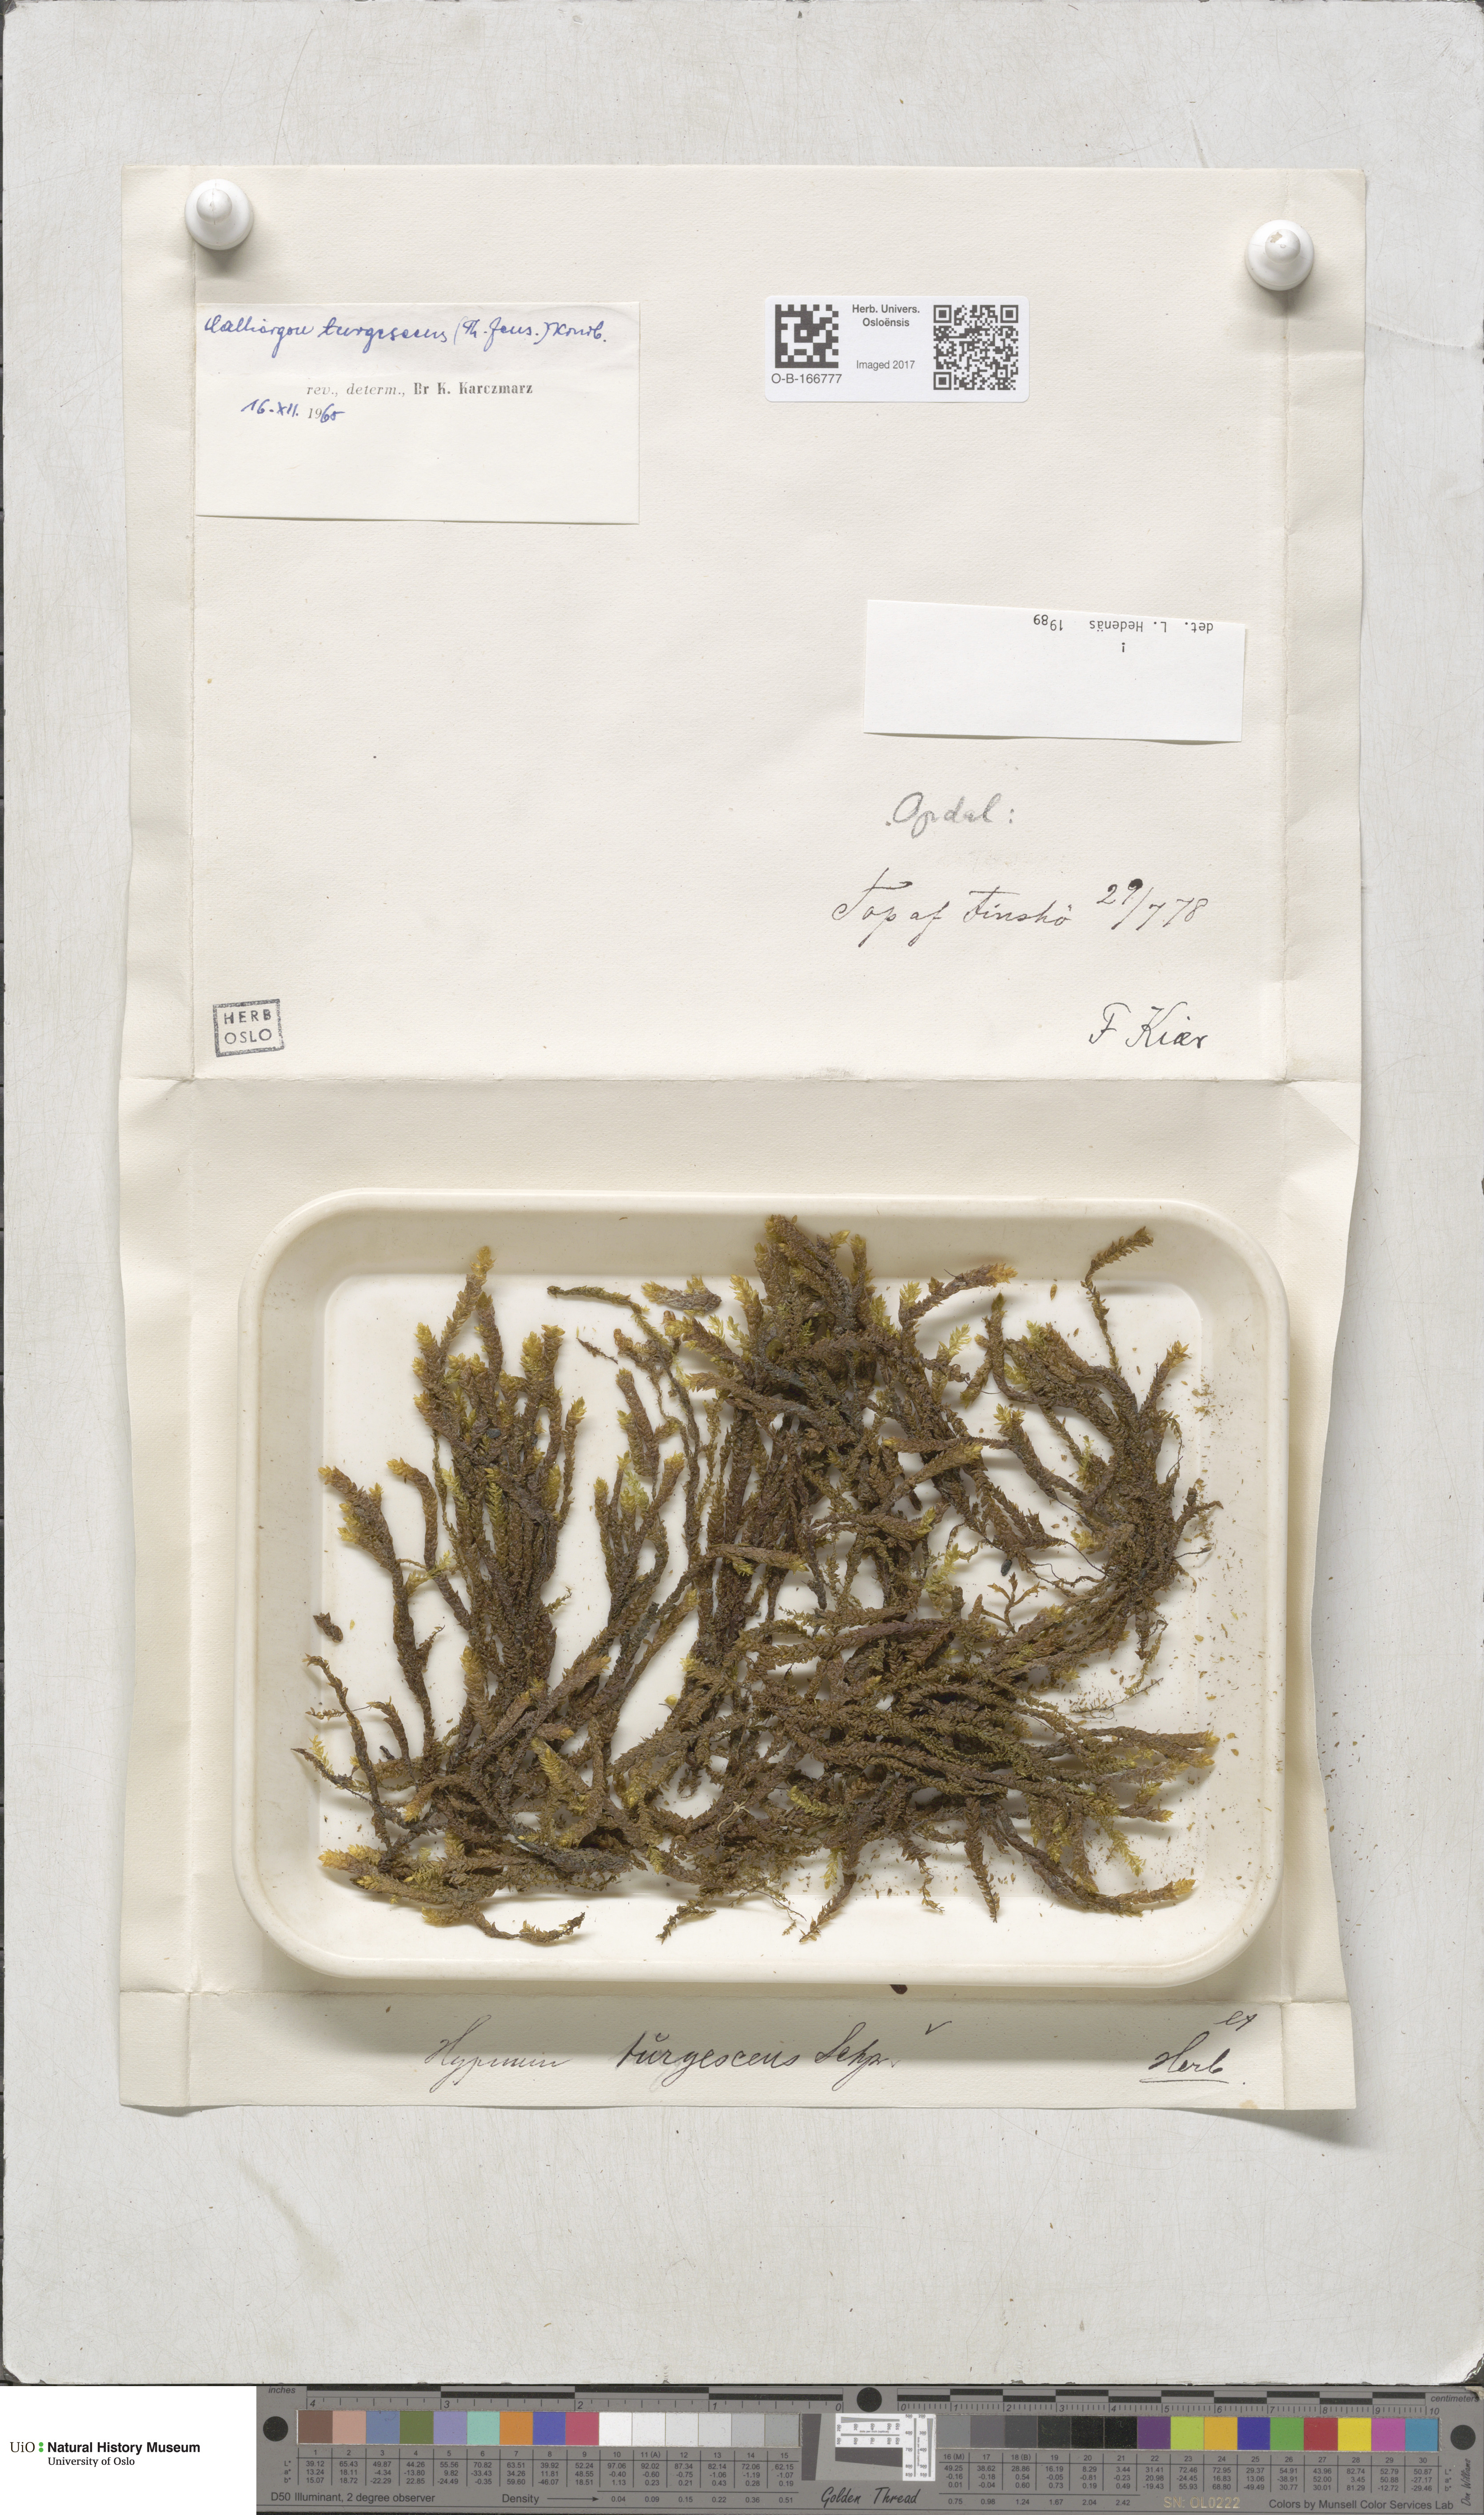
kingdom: Plantae
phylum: Bryophyta
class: Bryopsida
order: Hypnales
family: Amblystegiaceae
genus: Drepanocladus
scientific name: Drepanocladus turgescens
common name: Large yellow feather-moss
